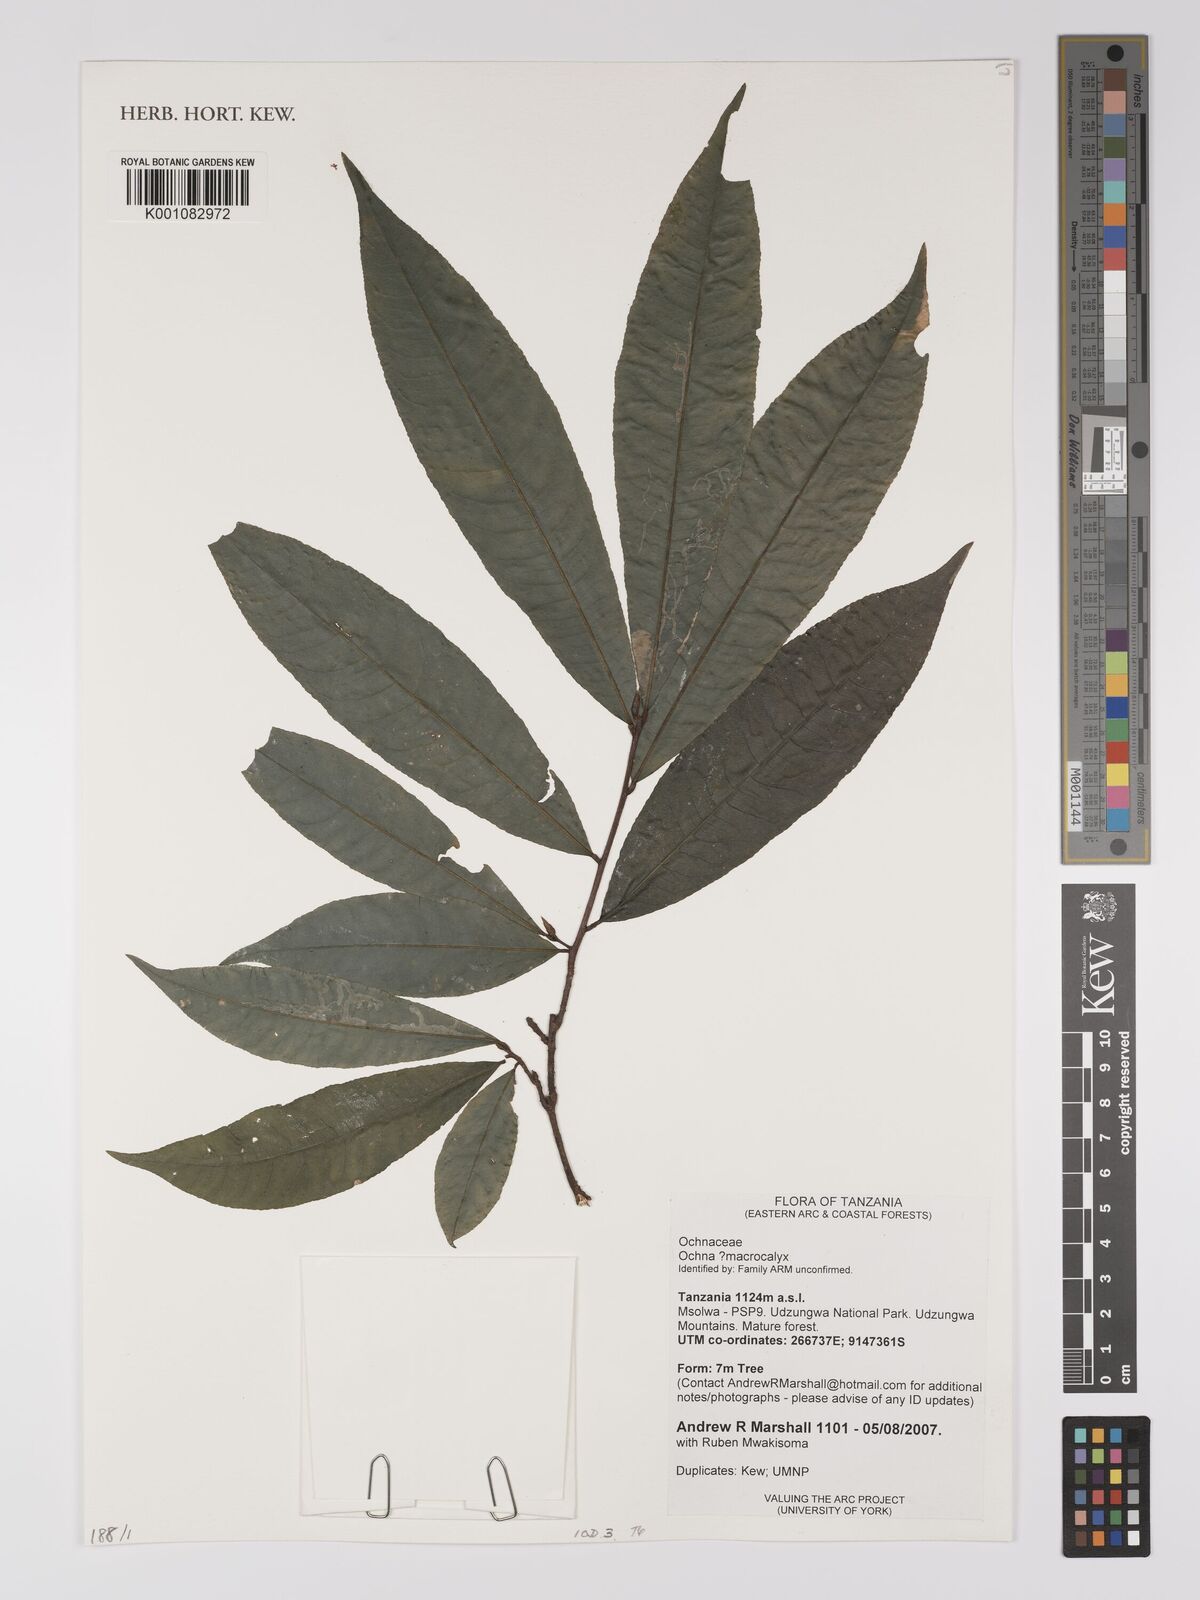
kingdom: Plantae
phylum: Tracheophyta
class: Magnoliopsida
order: Malpighiales
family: Ochnaceae
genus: Ochna
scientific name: Ochna macrocalyx
